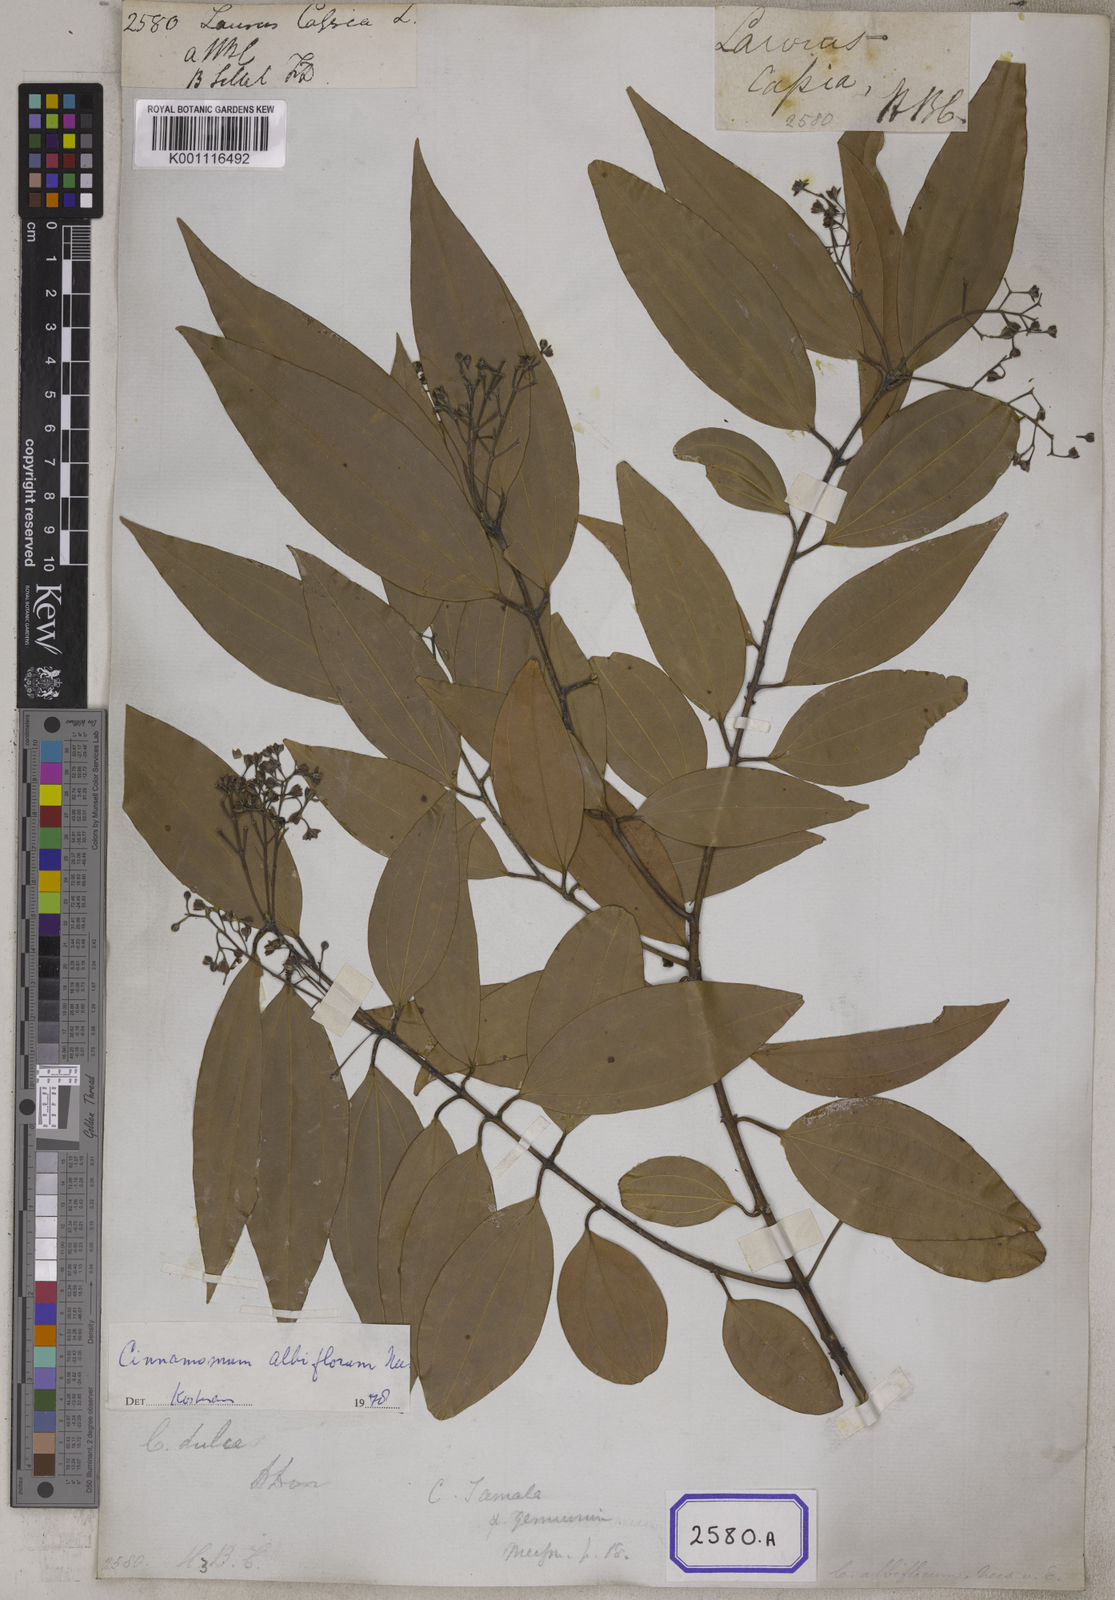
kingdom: Plantae
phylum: Tracheophyta
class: Magnoliopsida
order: Laurales
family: Lauraceae
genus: Neolitsea
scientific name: Neolitsea cassia
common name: Laurel
